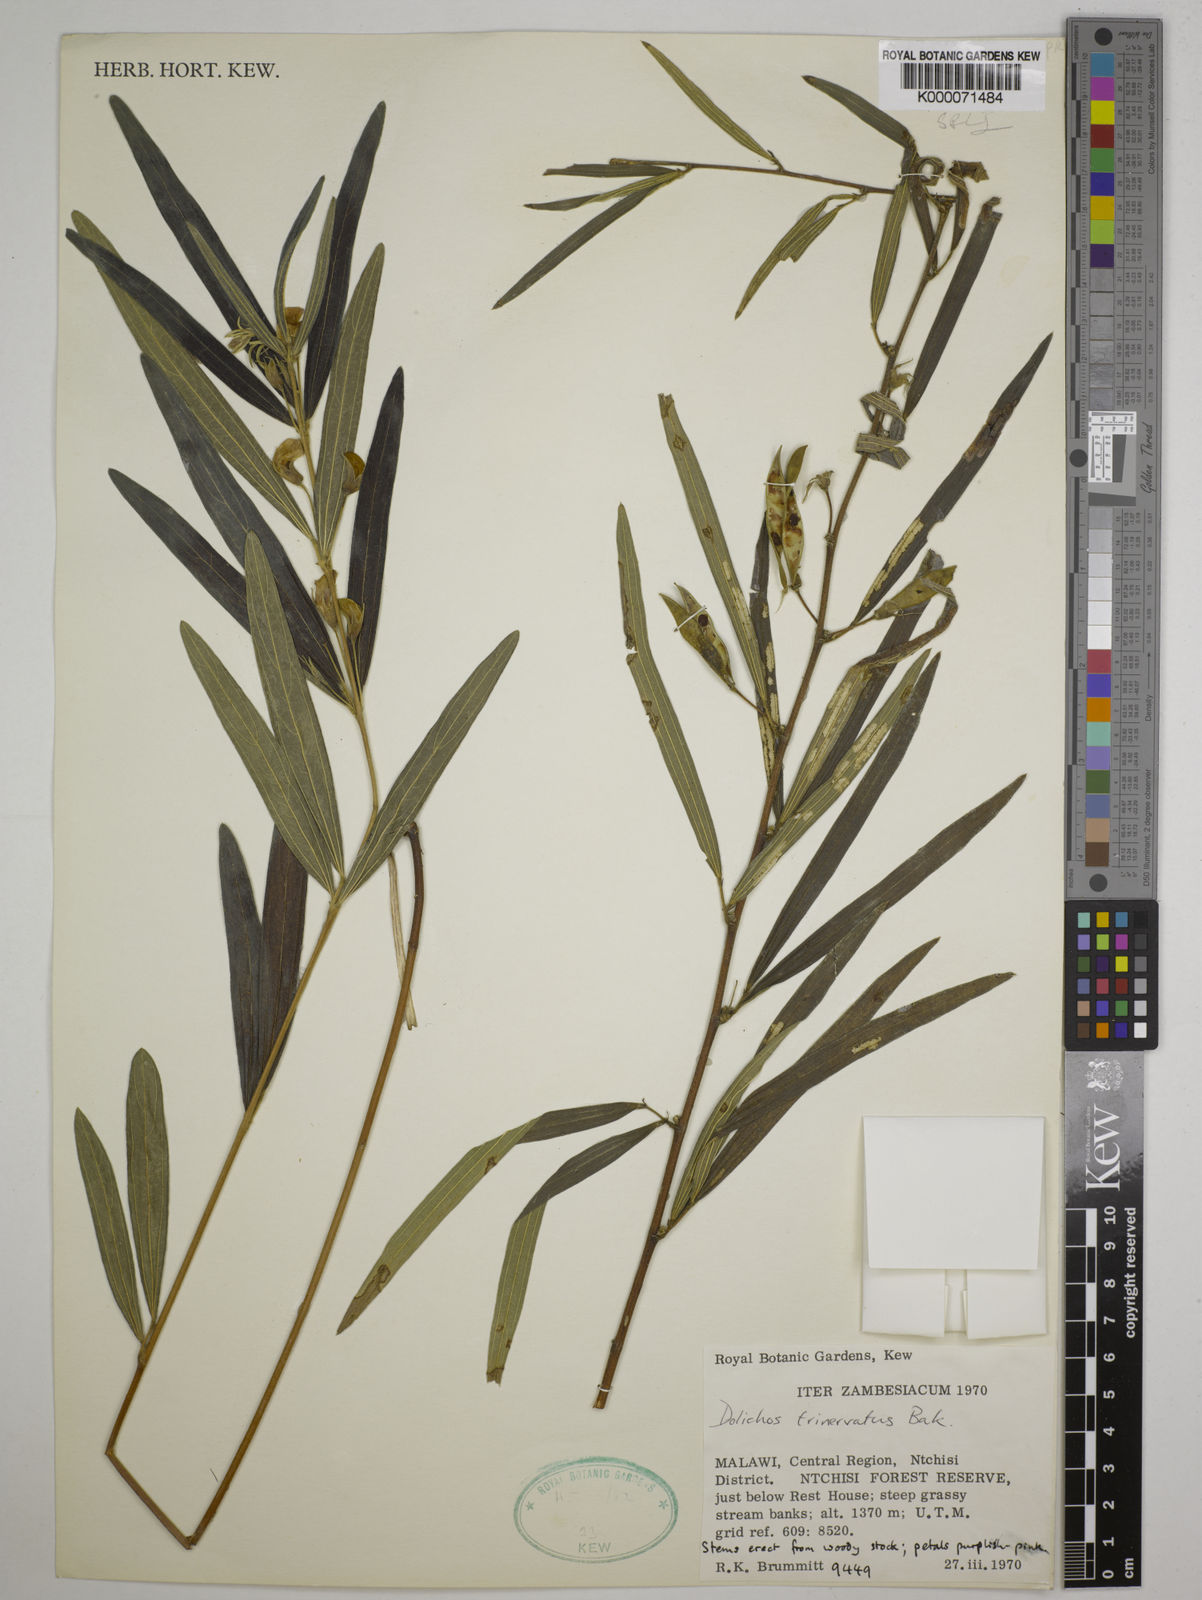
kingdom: Plantae
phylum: Tracheophyta
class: Magnoliopsida
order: Fabales
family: Fabaceae
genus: Dolichos
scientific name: Dolichos trinervatus
